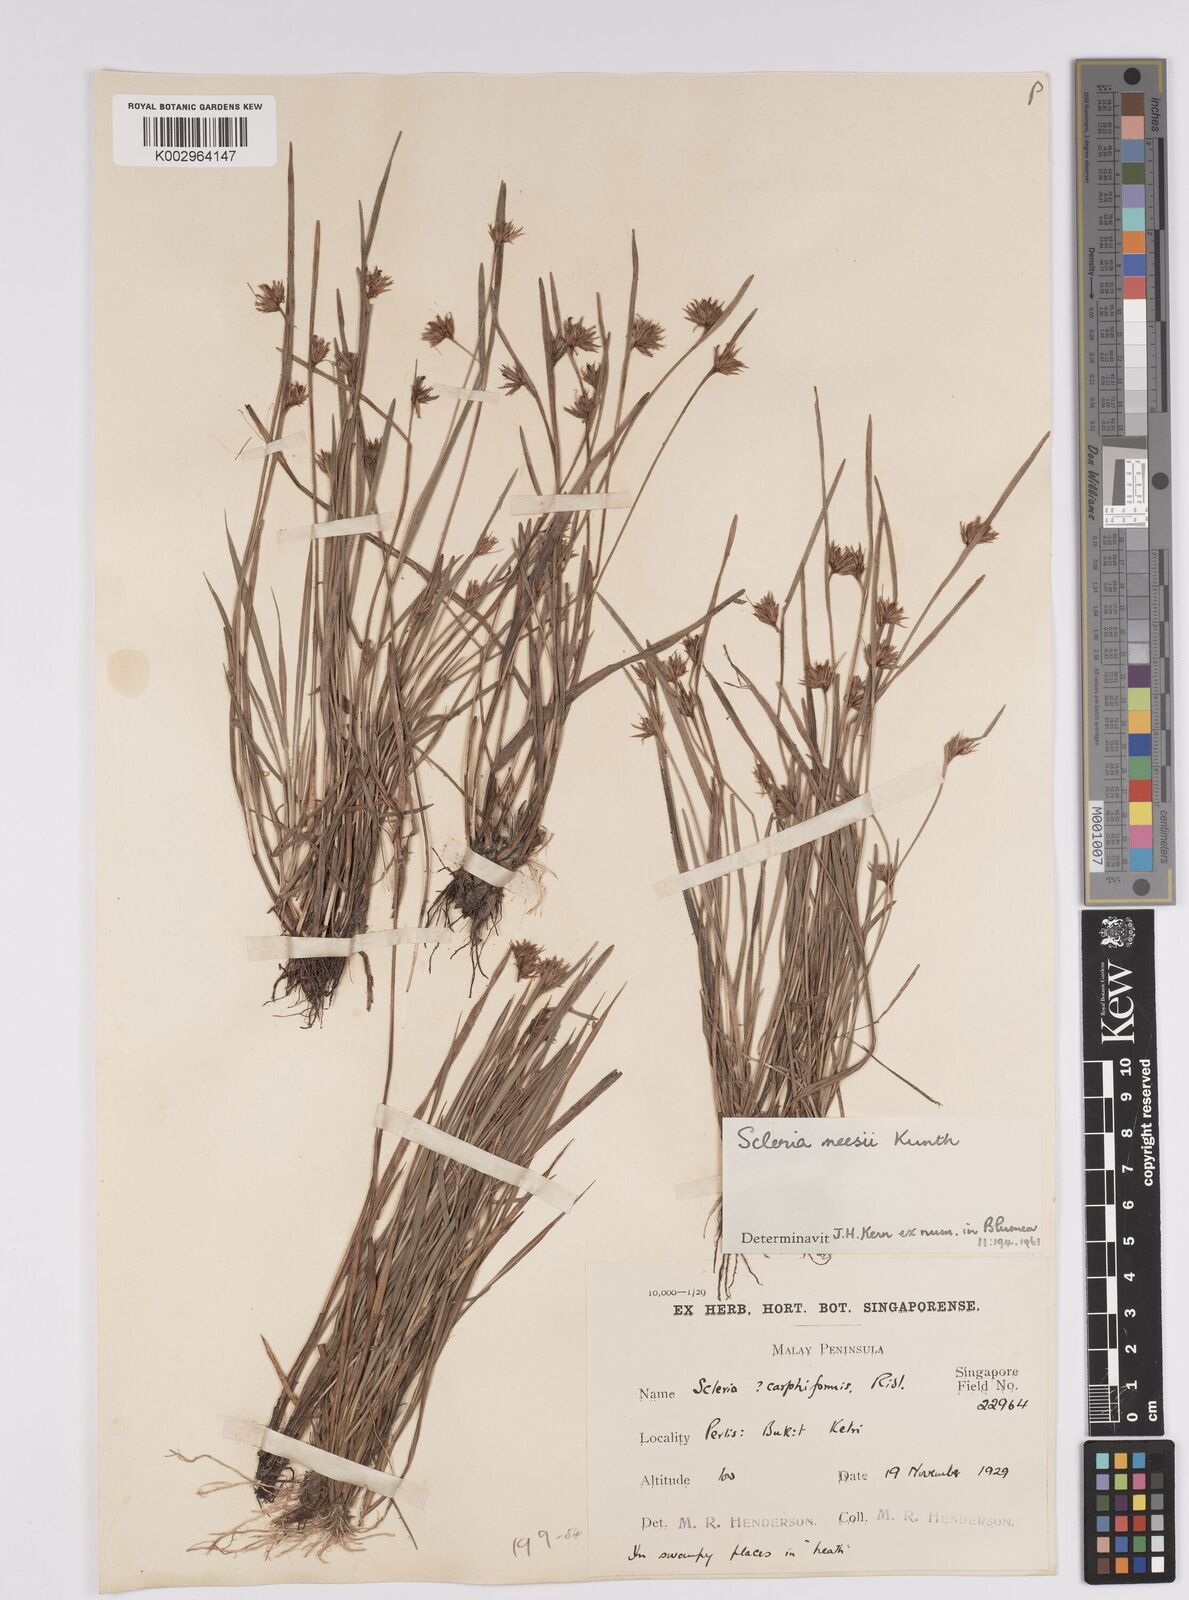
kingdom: Plantae
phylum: Tracheophyta
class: Liliopsida
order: Poales
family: Cyperaceae
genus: Scleria
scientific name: Scleria neesii
